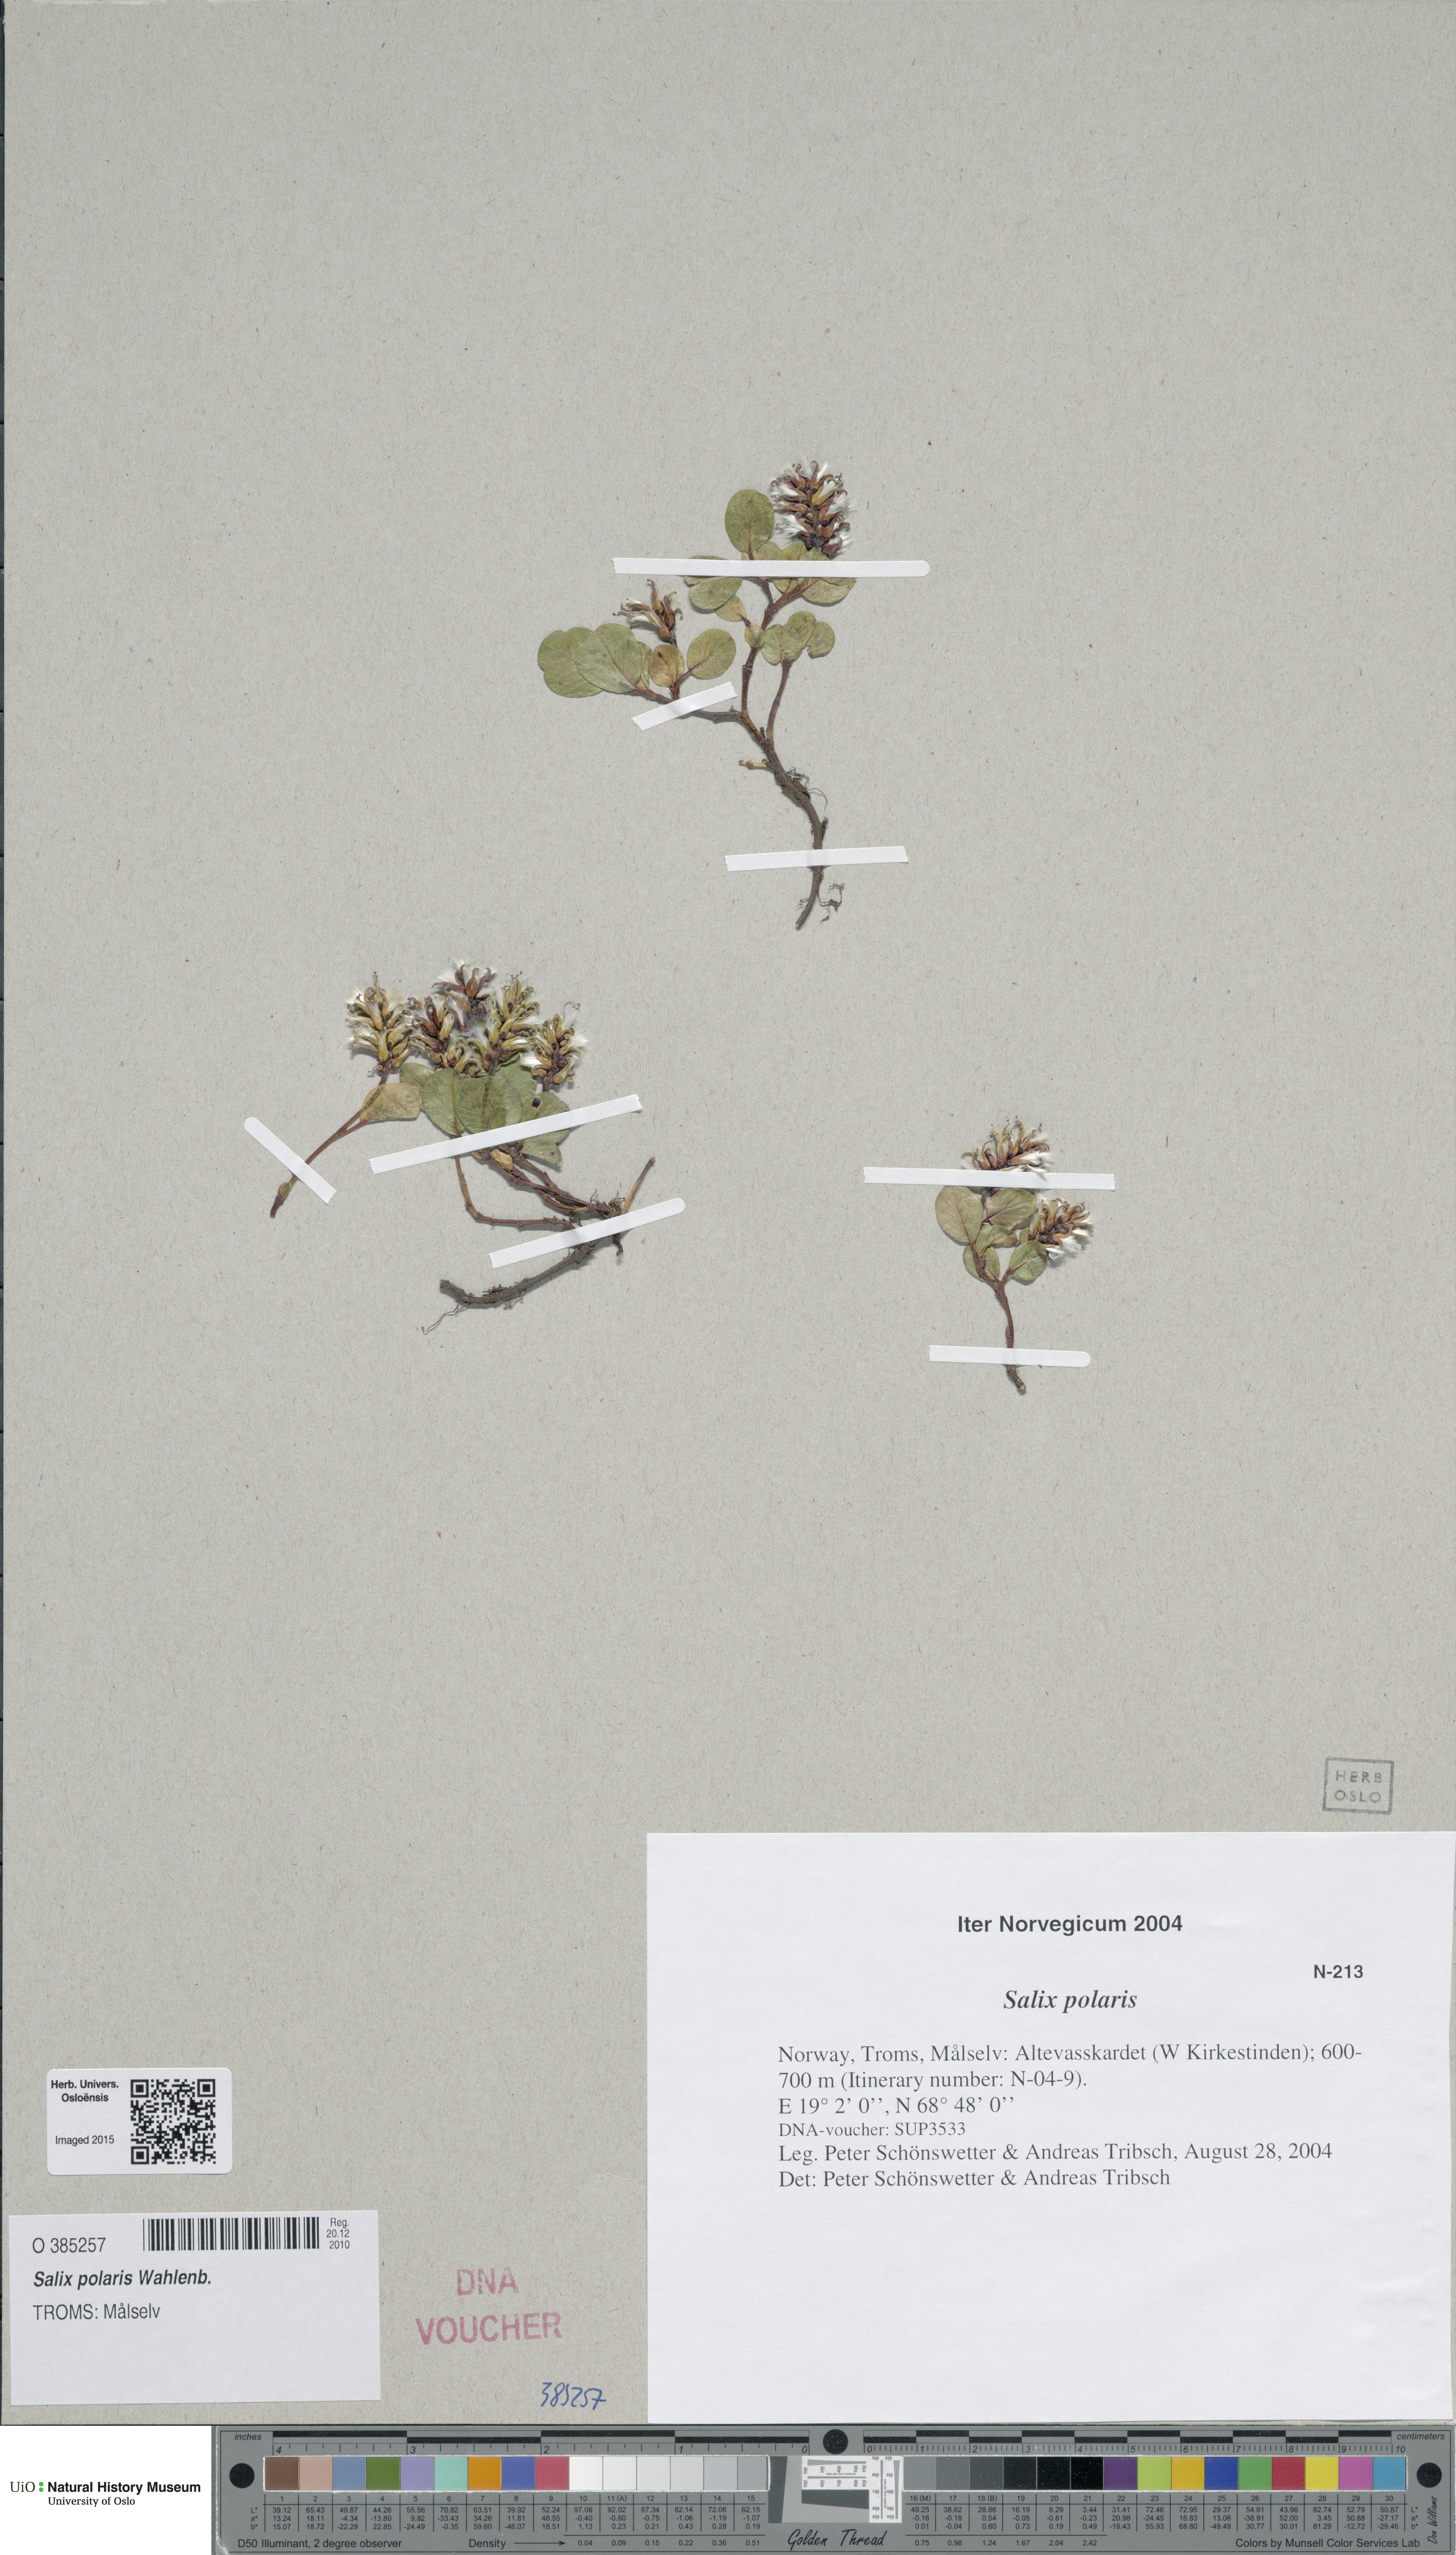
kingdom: Plantae
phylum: Tracheophyta
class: Magnoliopsida
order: Malpighiales
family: Salicaceae
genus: Salix
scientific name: Salix polaris
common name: Polar willow
